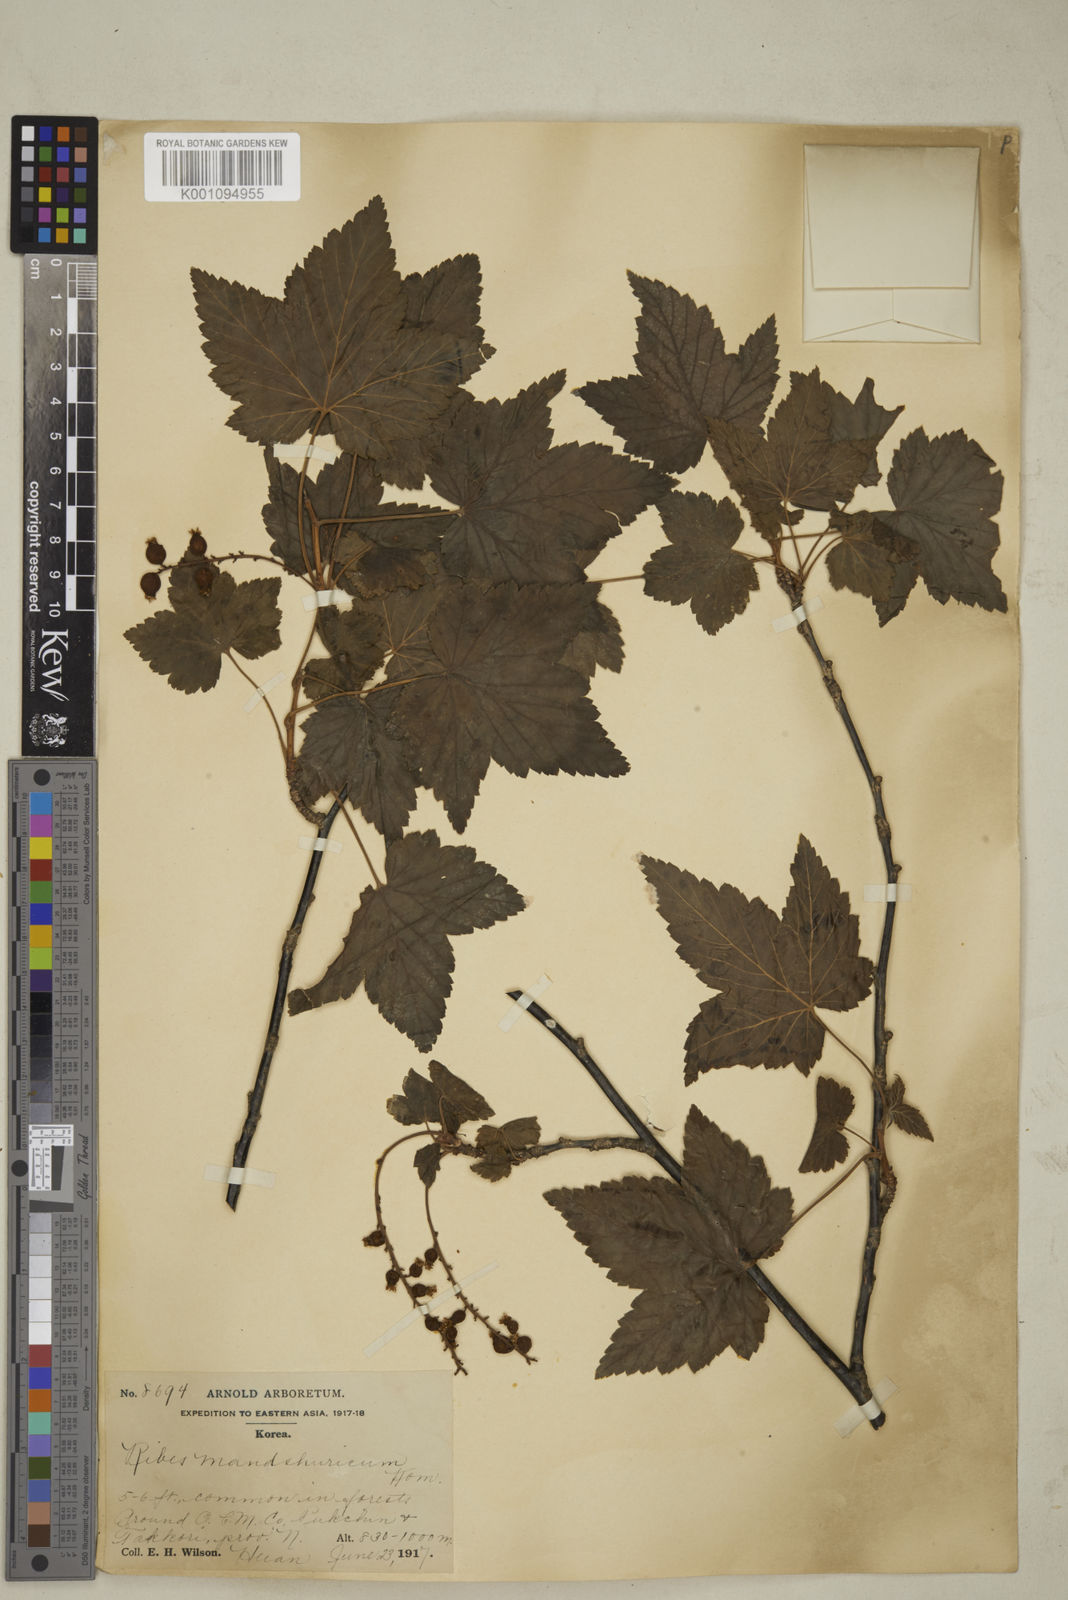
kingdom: Plantae
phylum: Tracheophyta
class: Magnoliopsida
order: Saxifragales
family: Grossulariaceae
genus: Ribes
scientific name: Ribes
